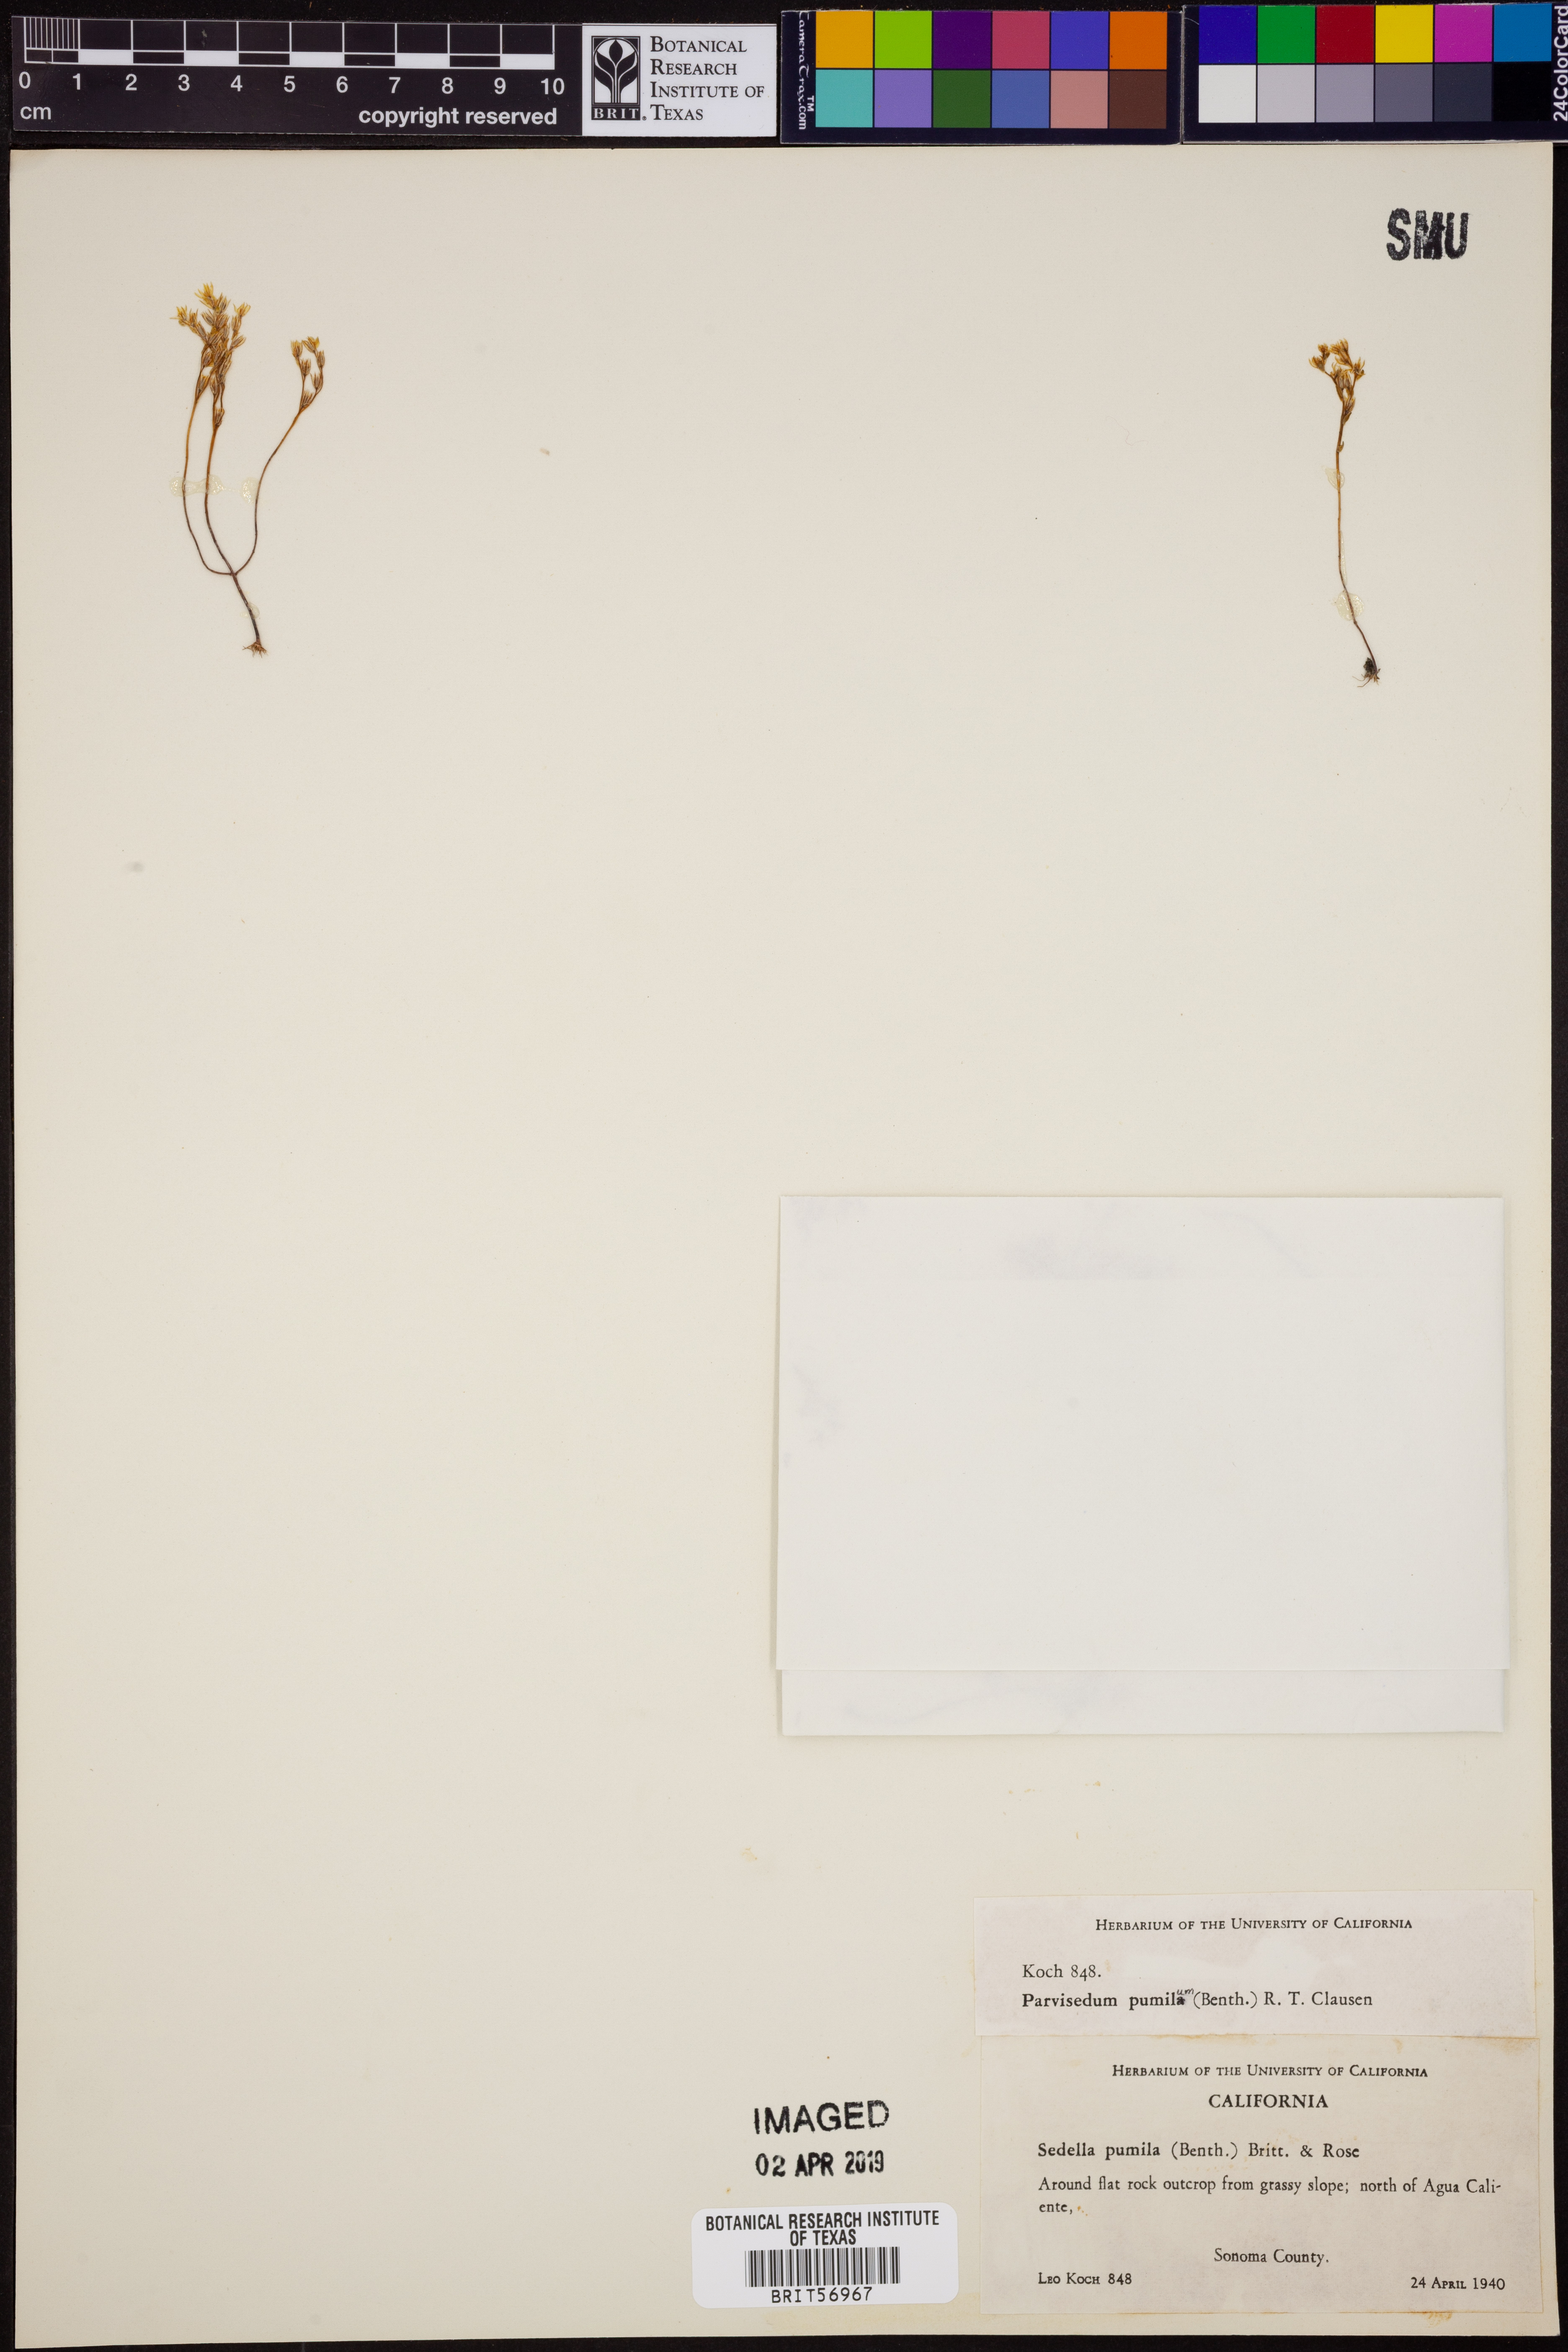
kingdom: Plantae
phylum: Tracheophyta
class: Magnoliopsida
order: Saxifragales
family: Crassulaceae
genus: Sedella
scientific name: Sedella pumila
